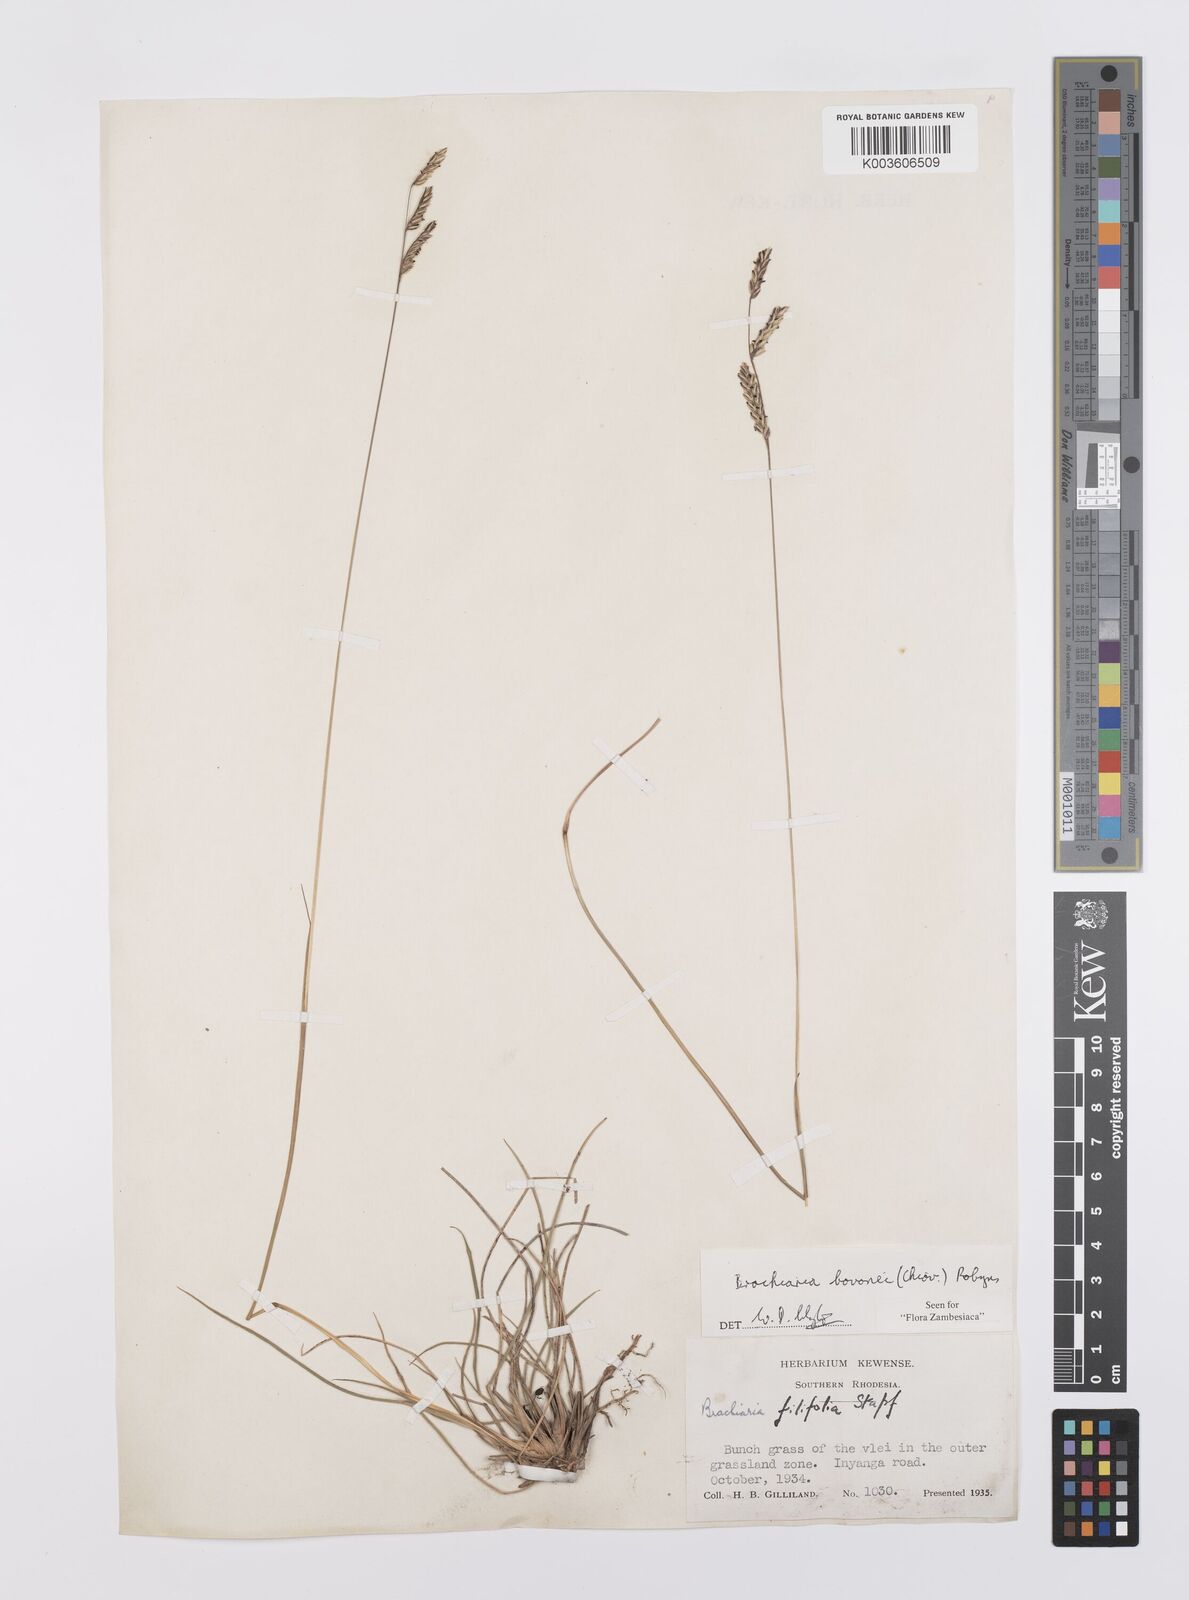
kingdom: Plantae
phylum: Tracheophyta
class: Liliopsida
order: Poales
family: Poaceae
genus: Urochloa
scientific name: Urochloa bovonei
